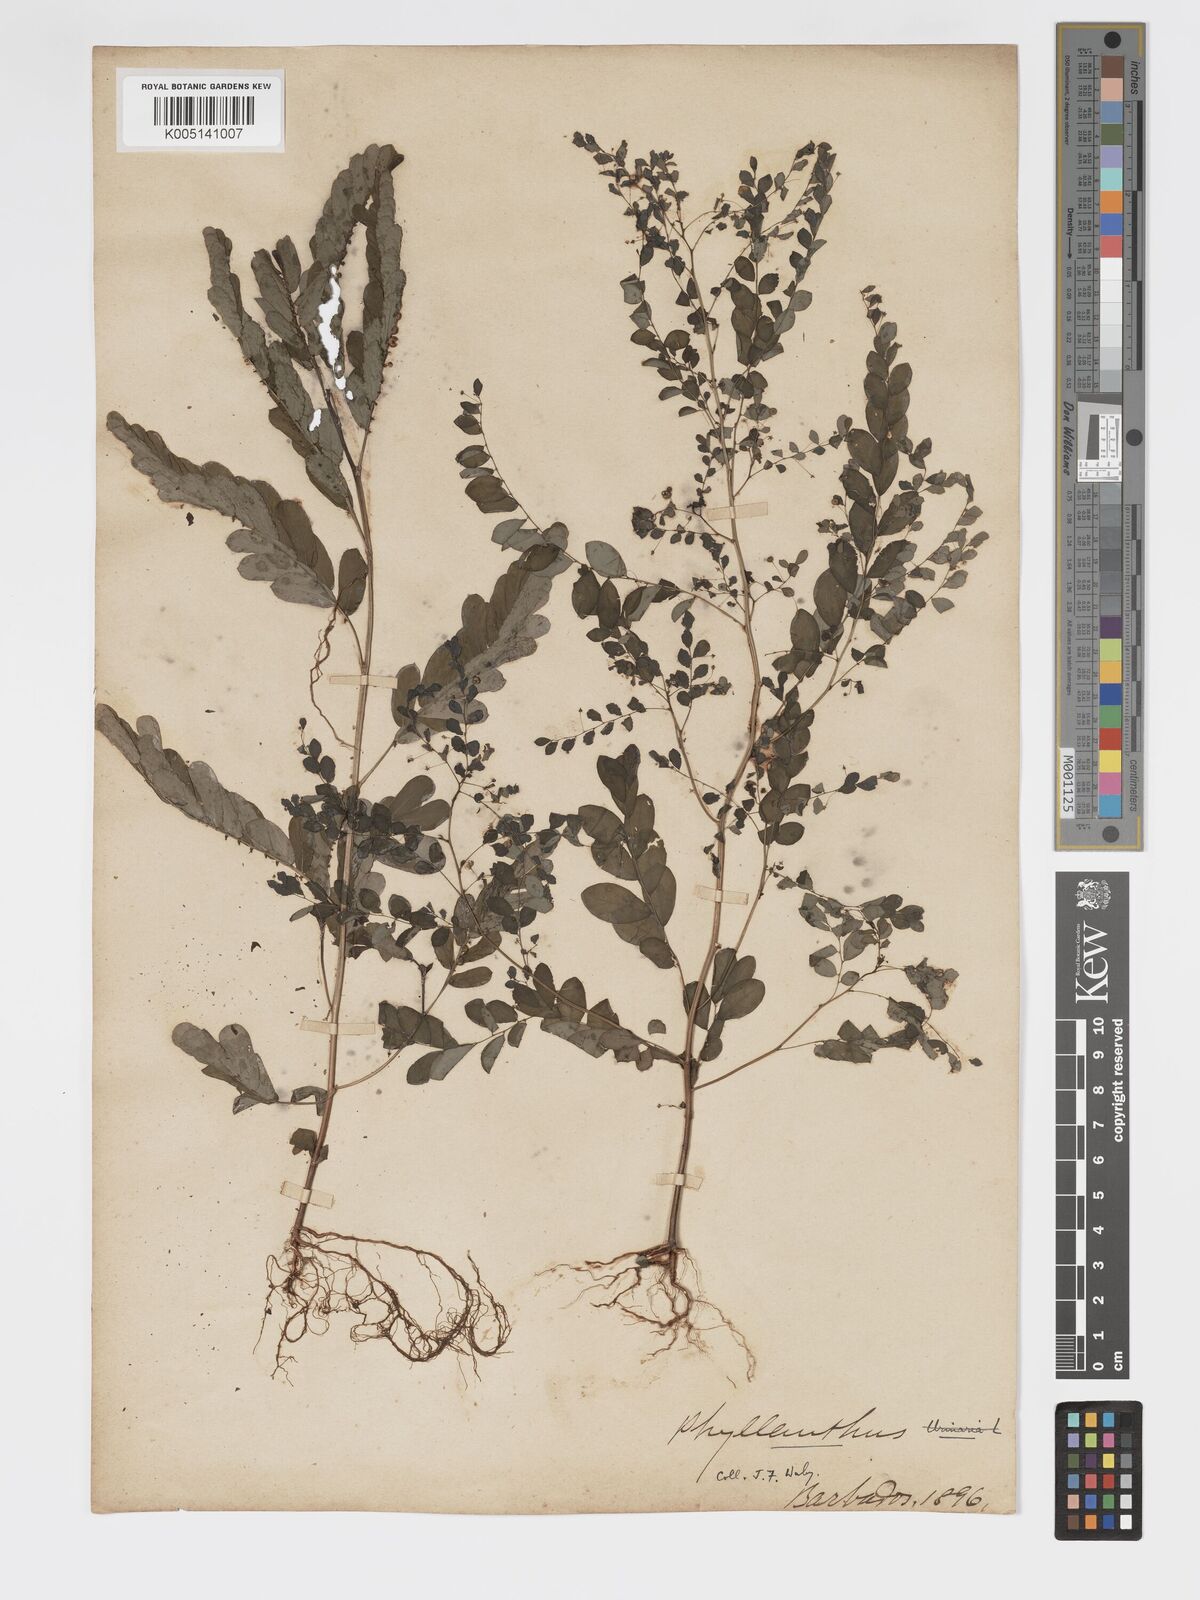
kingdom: Plantae
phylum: Tracheophyta
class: Magnoliopsida
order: Malpighiales
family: Phyllanthaceae
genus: Phyllanthus
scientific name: Phyllanthus
